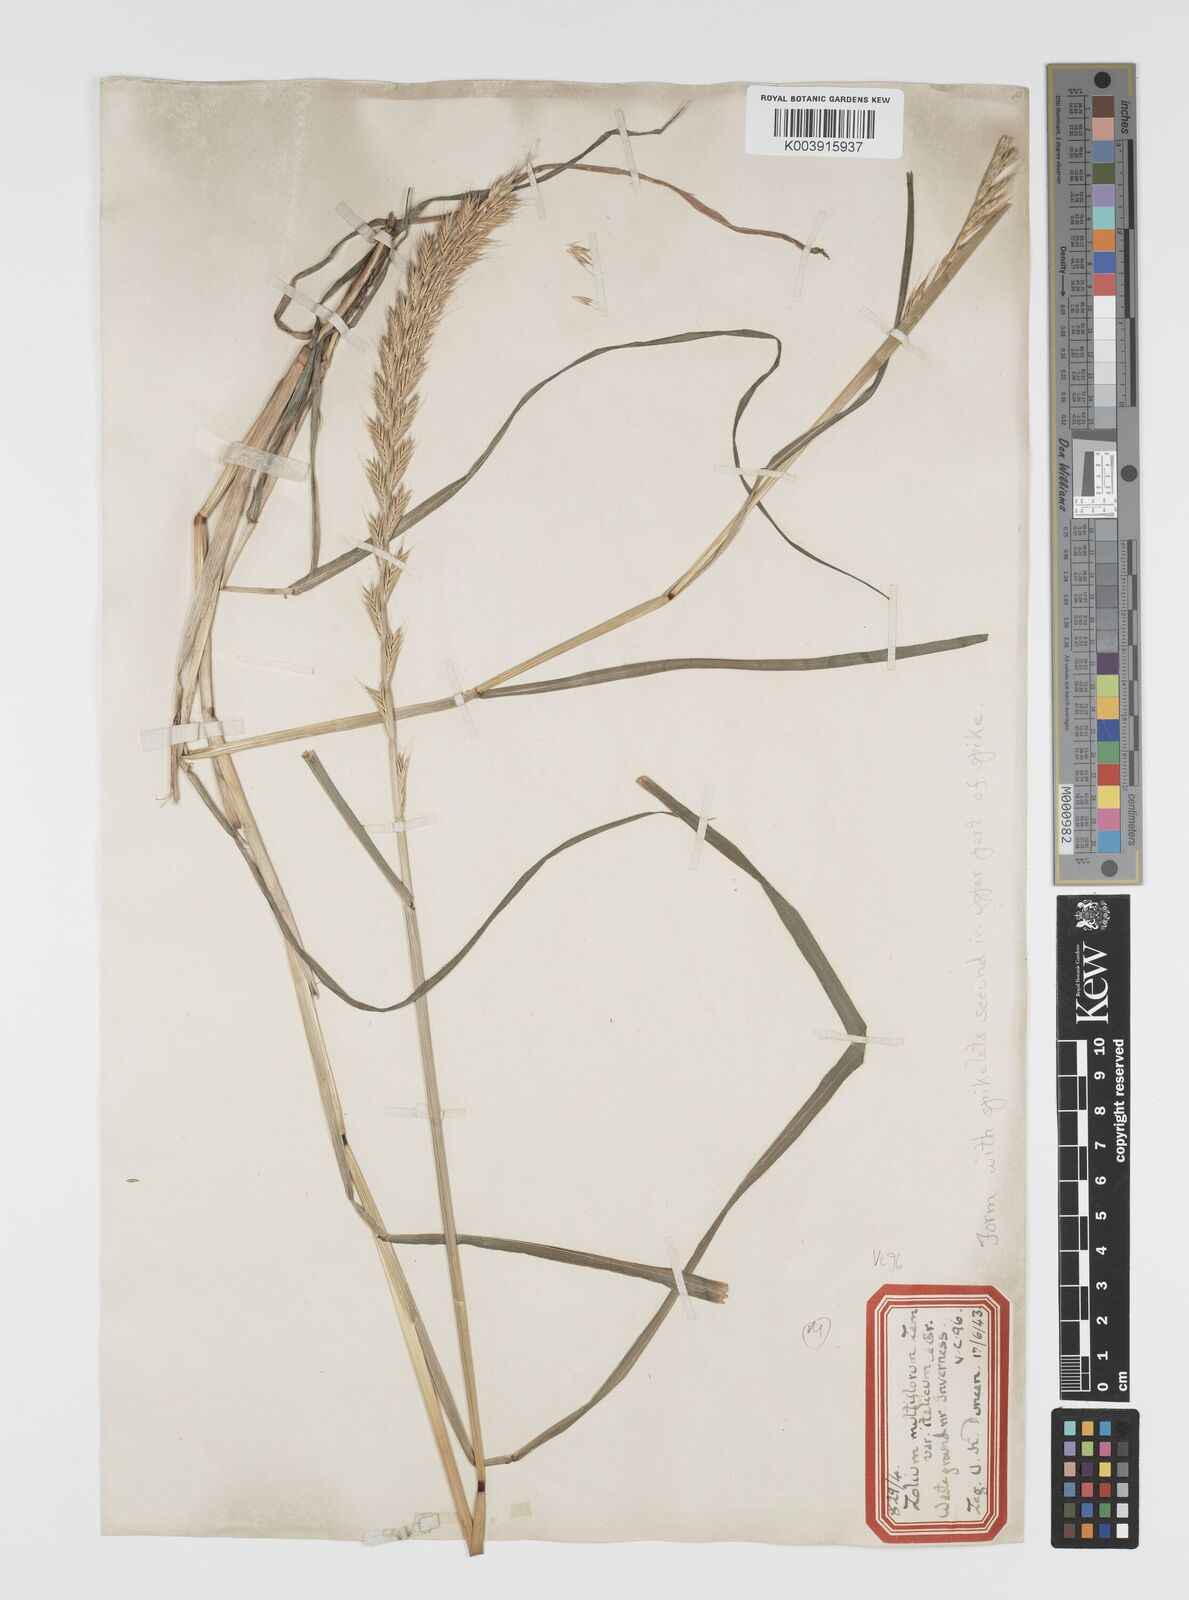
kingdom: Plantae
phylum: Tracheophyta
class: Liliopsida
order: Poales
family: Poaceae
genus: Lolium
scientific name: Lolium multiflorum
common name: Annual ryegrass
